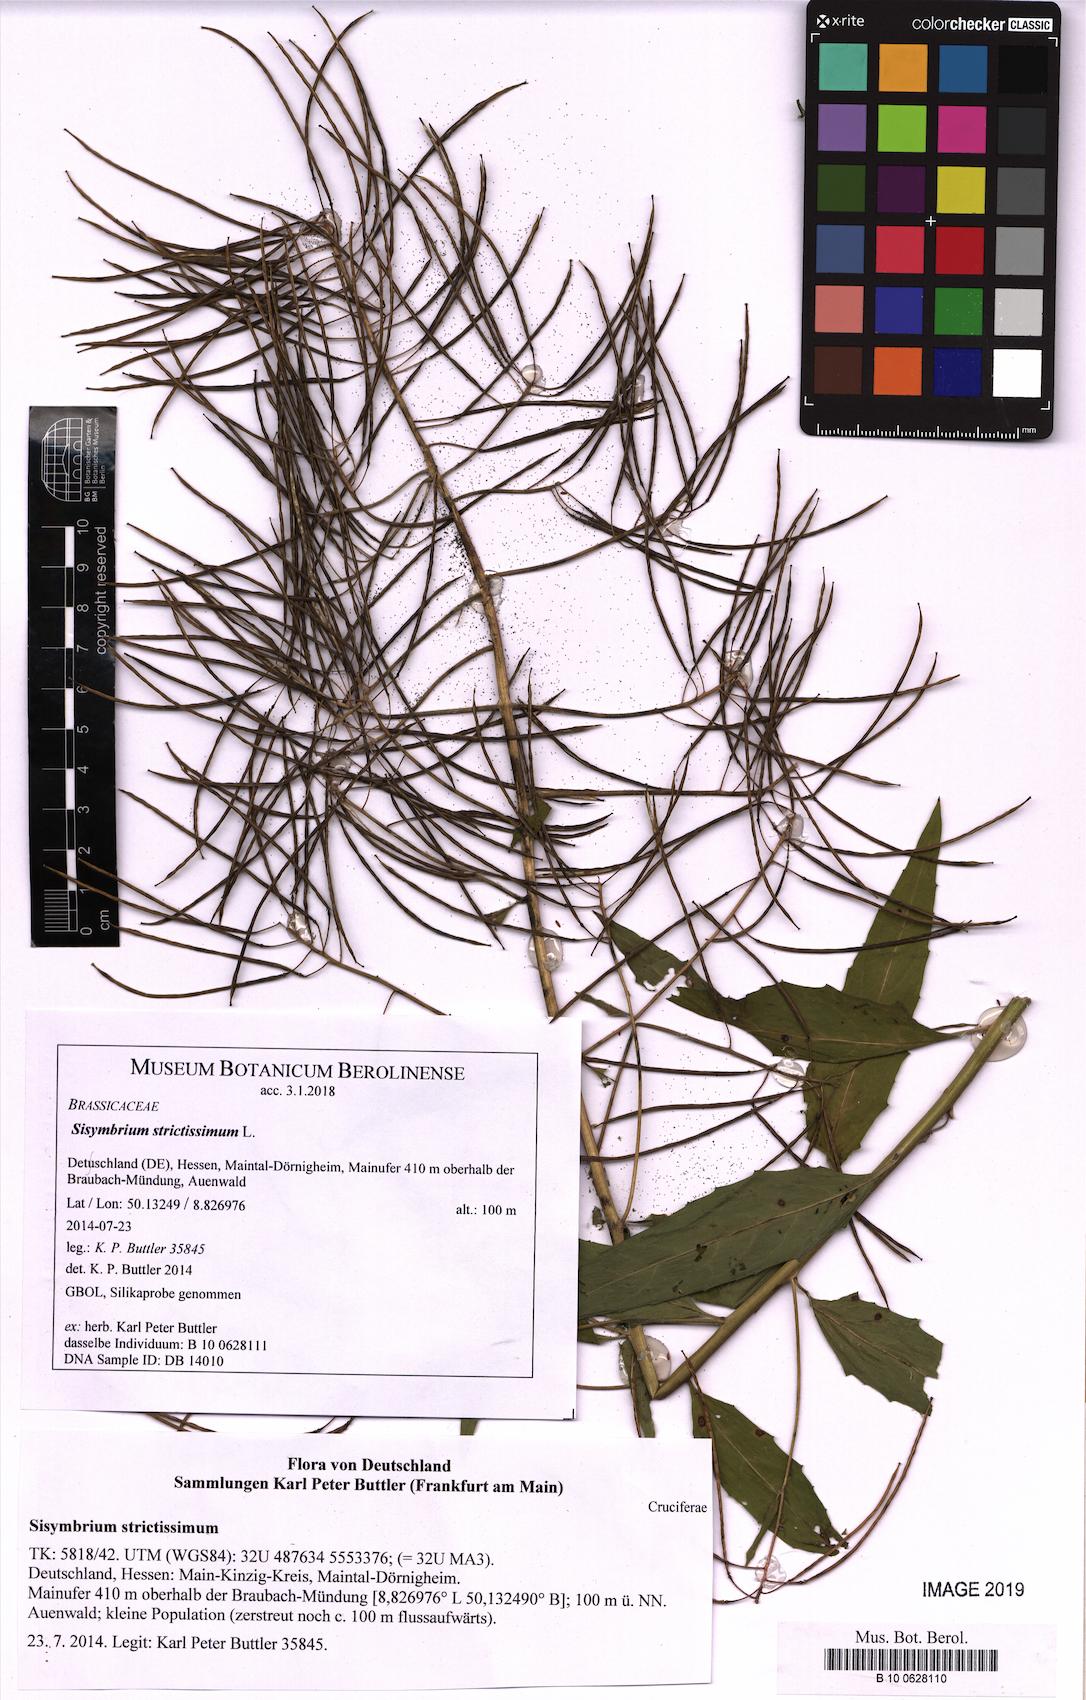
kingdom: Plantae
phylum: Tracheophyta
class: Magnoliopsida
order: Brassicales
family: Brassicaceae
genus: Sisymbrium
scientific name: Sisymbrium strictissimum
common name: Perennial rocket
